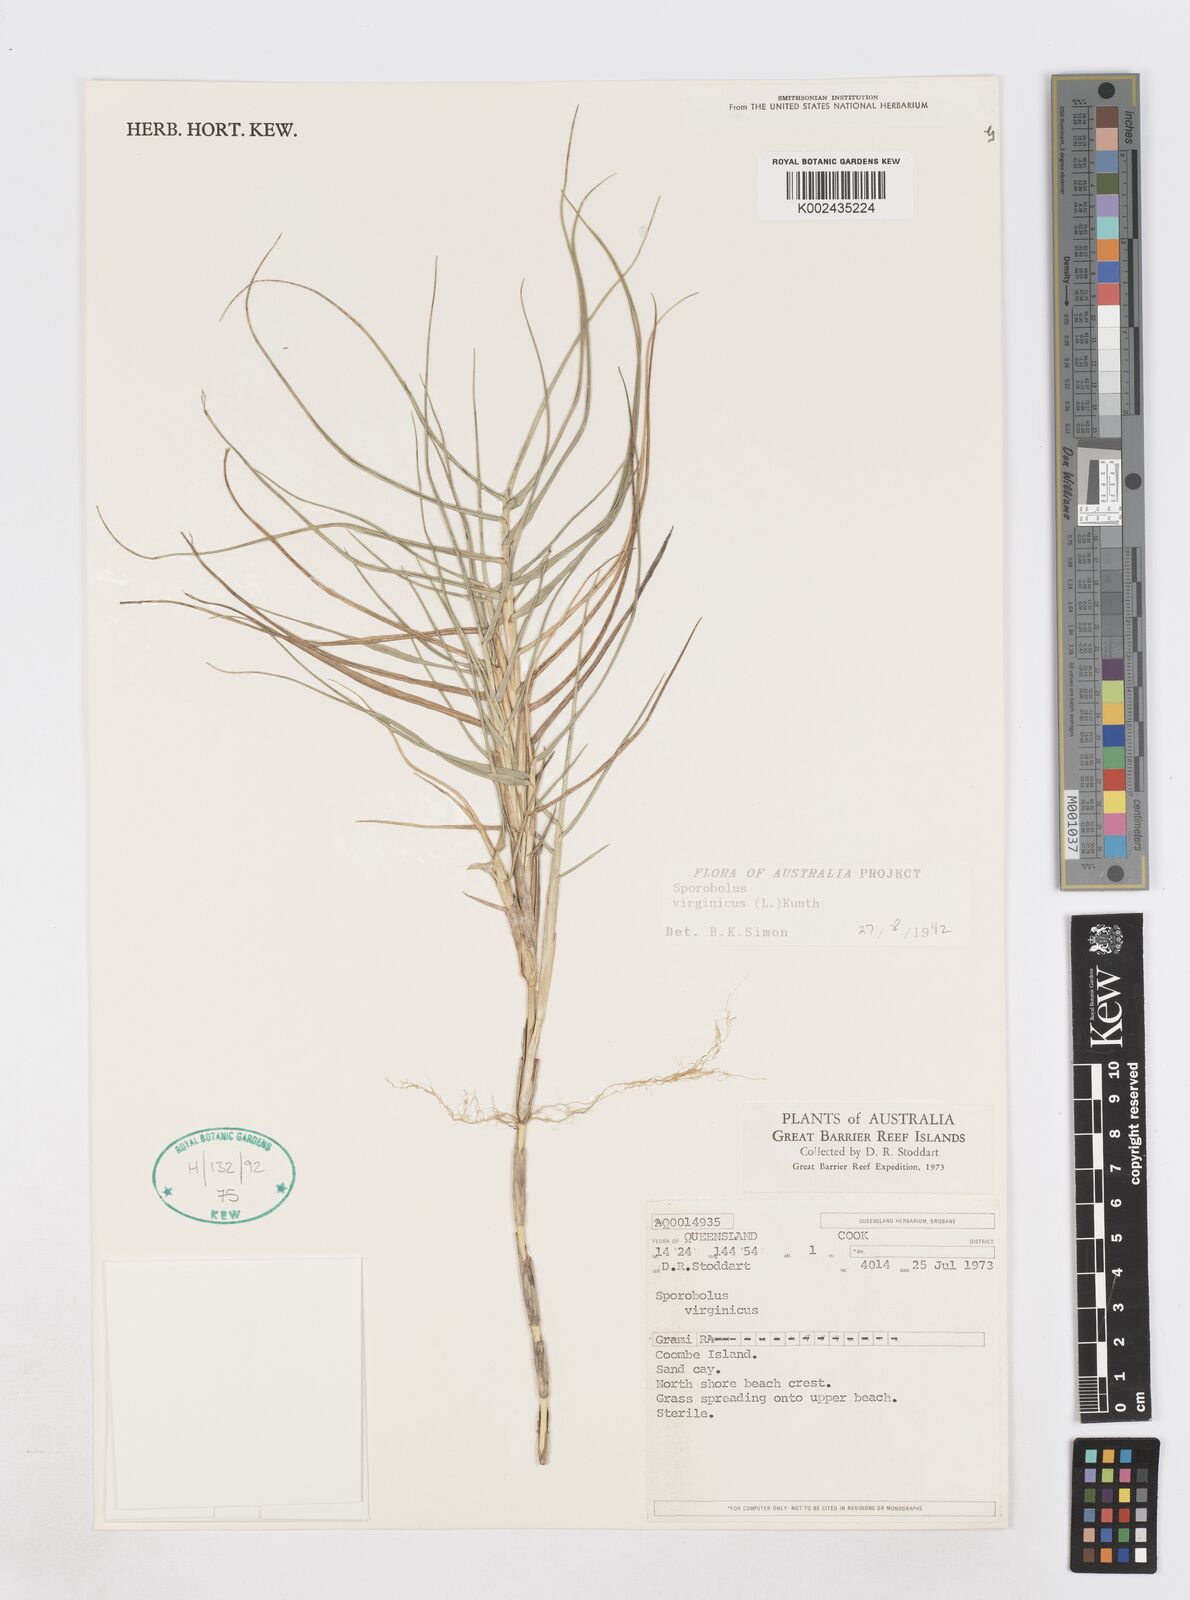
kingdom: Plantae
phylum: Tracheophyta
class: Liliopsida
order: Poales
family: Poaceae
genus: Sporobolus
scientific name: Sporobolus virginicus
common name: Beach dropseed
